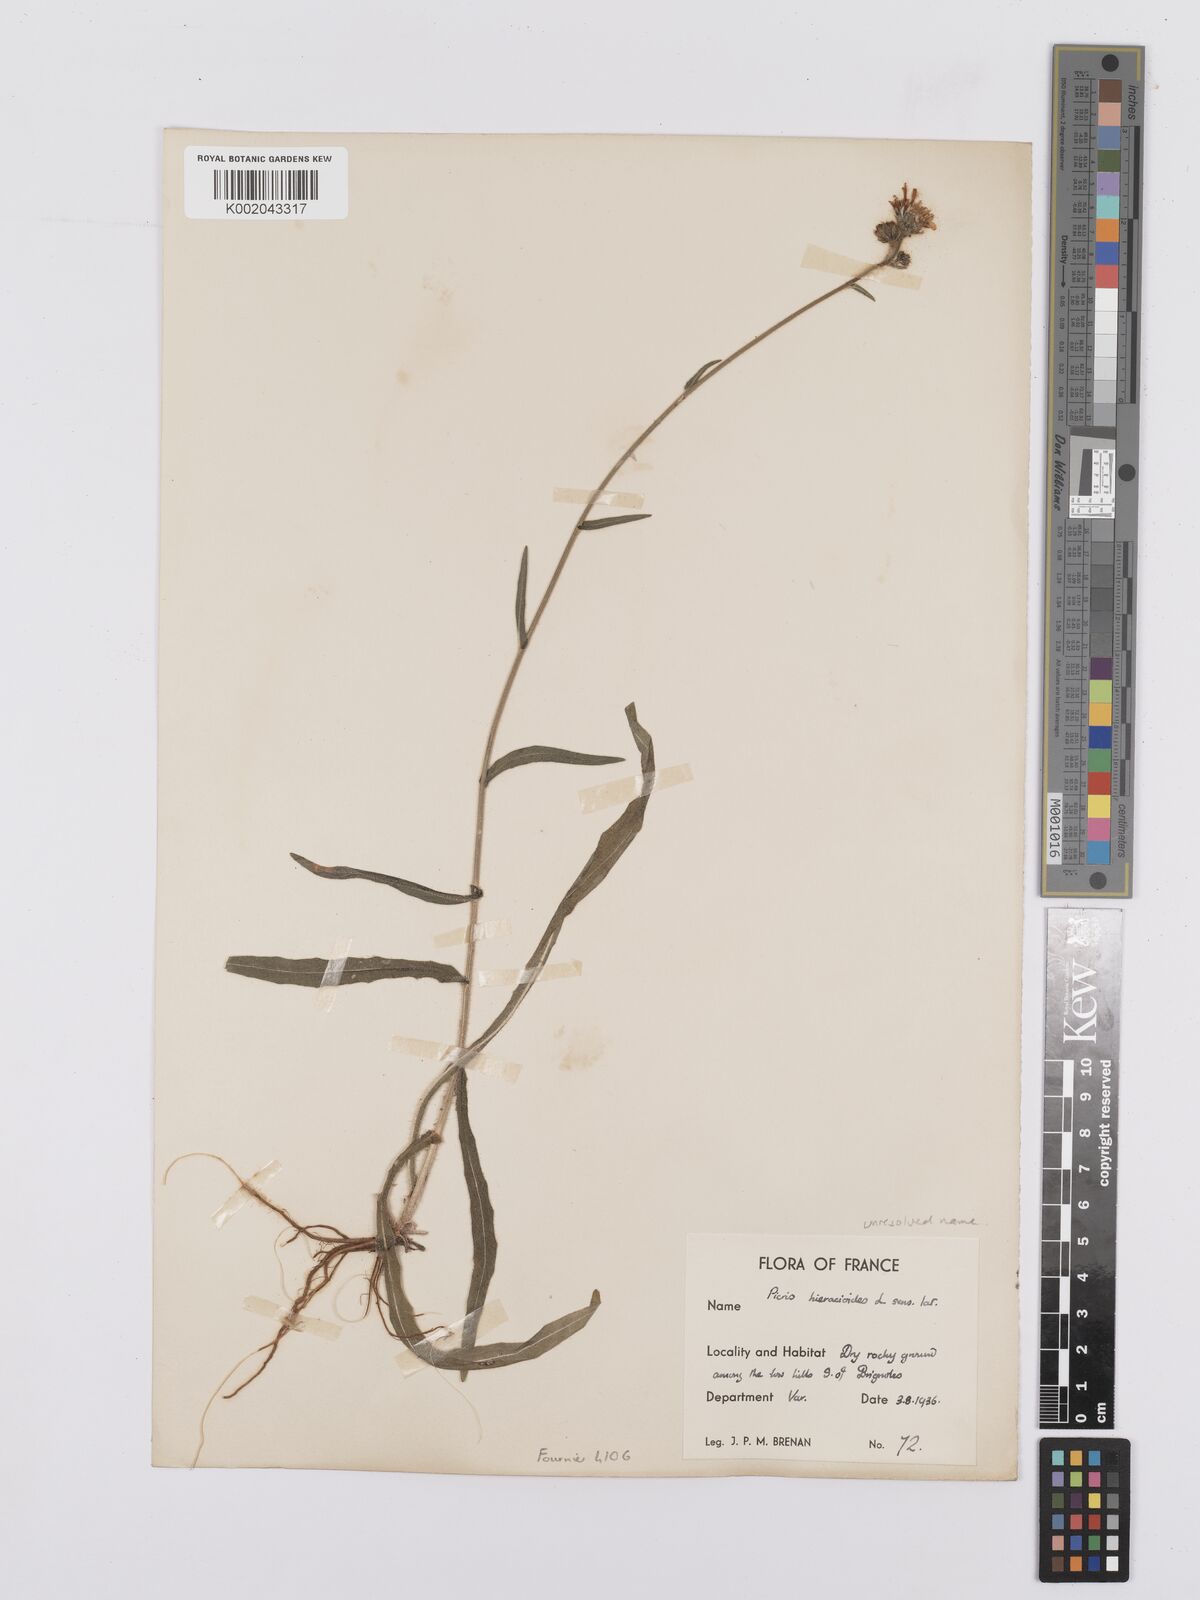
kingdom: Plantae
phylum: Tracheophyta
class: Magnoliopsida
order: Asterales
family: Asteraceae
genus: Picris
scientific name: Picris hieracioides
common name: Hawkweed oxtongue
